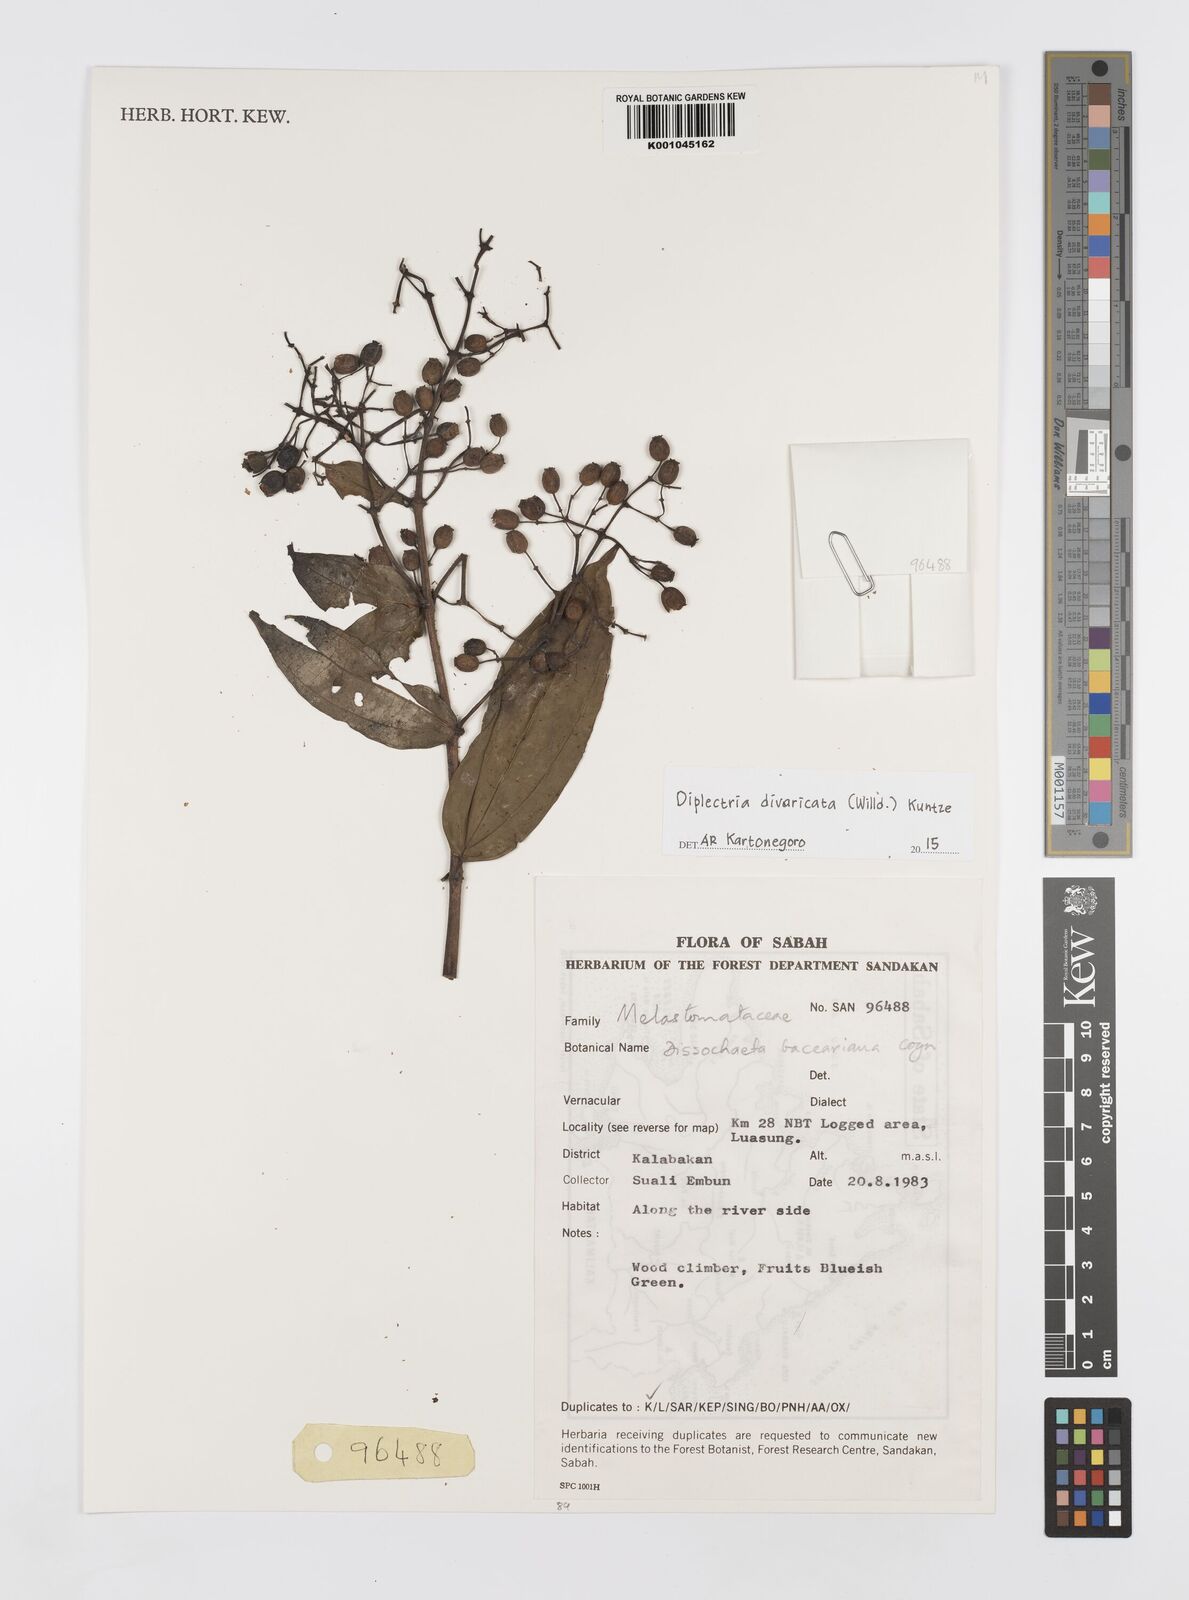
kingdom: Plantae
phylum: Tracheophyta
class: Magnoliopsida
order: Myrtales
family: Melastomataceae
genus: Diplectria
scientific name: Diplectria divaricata
